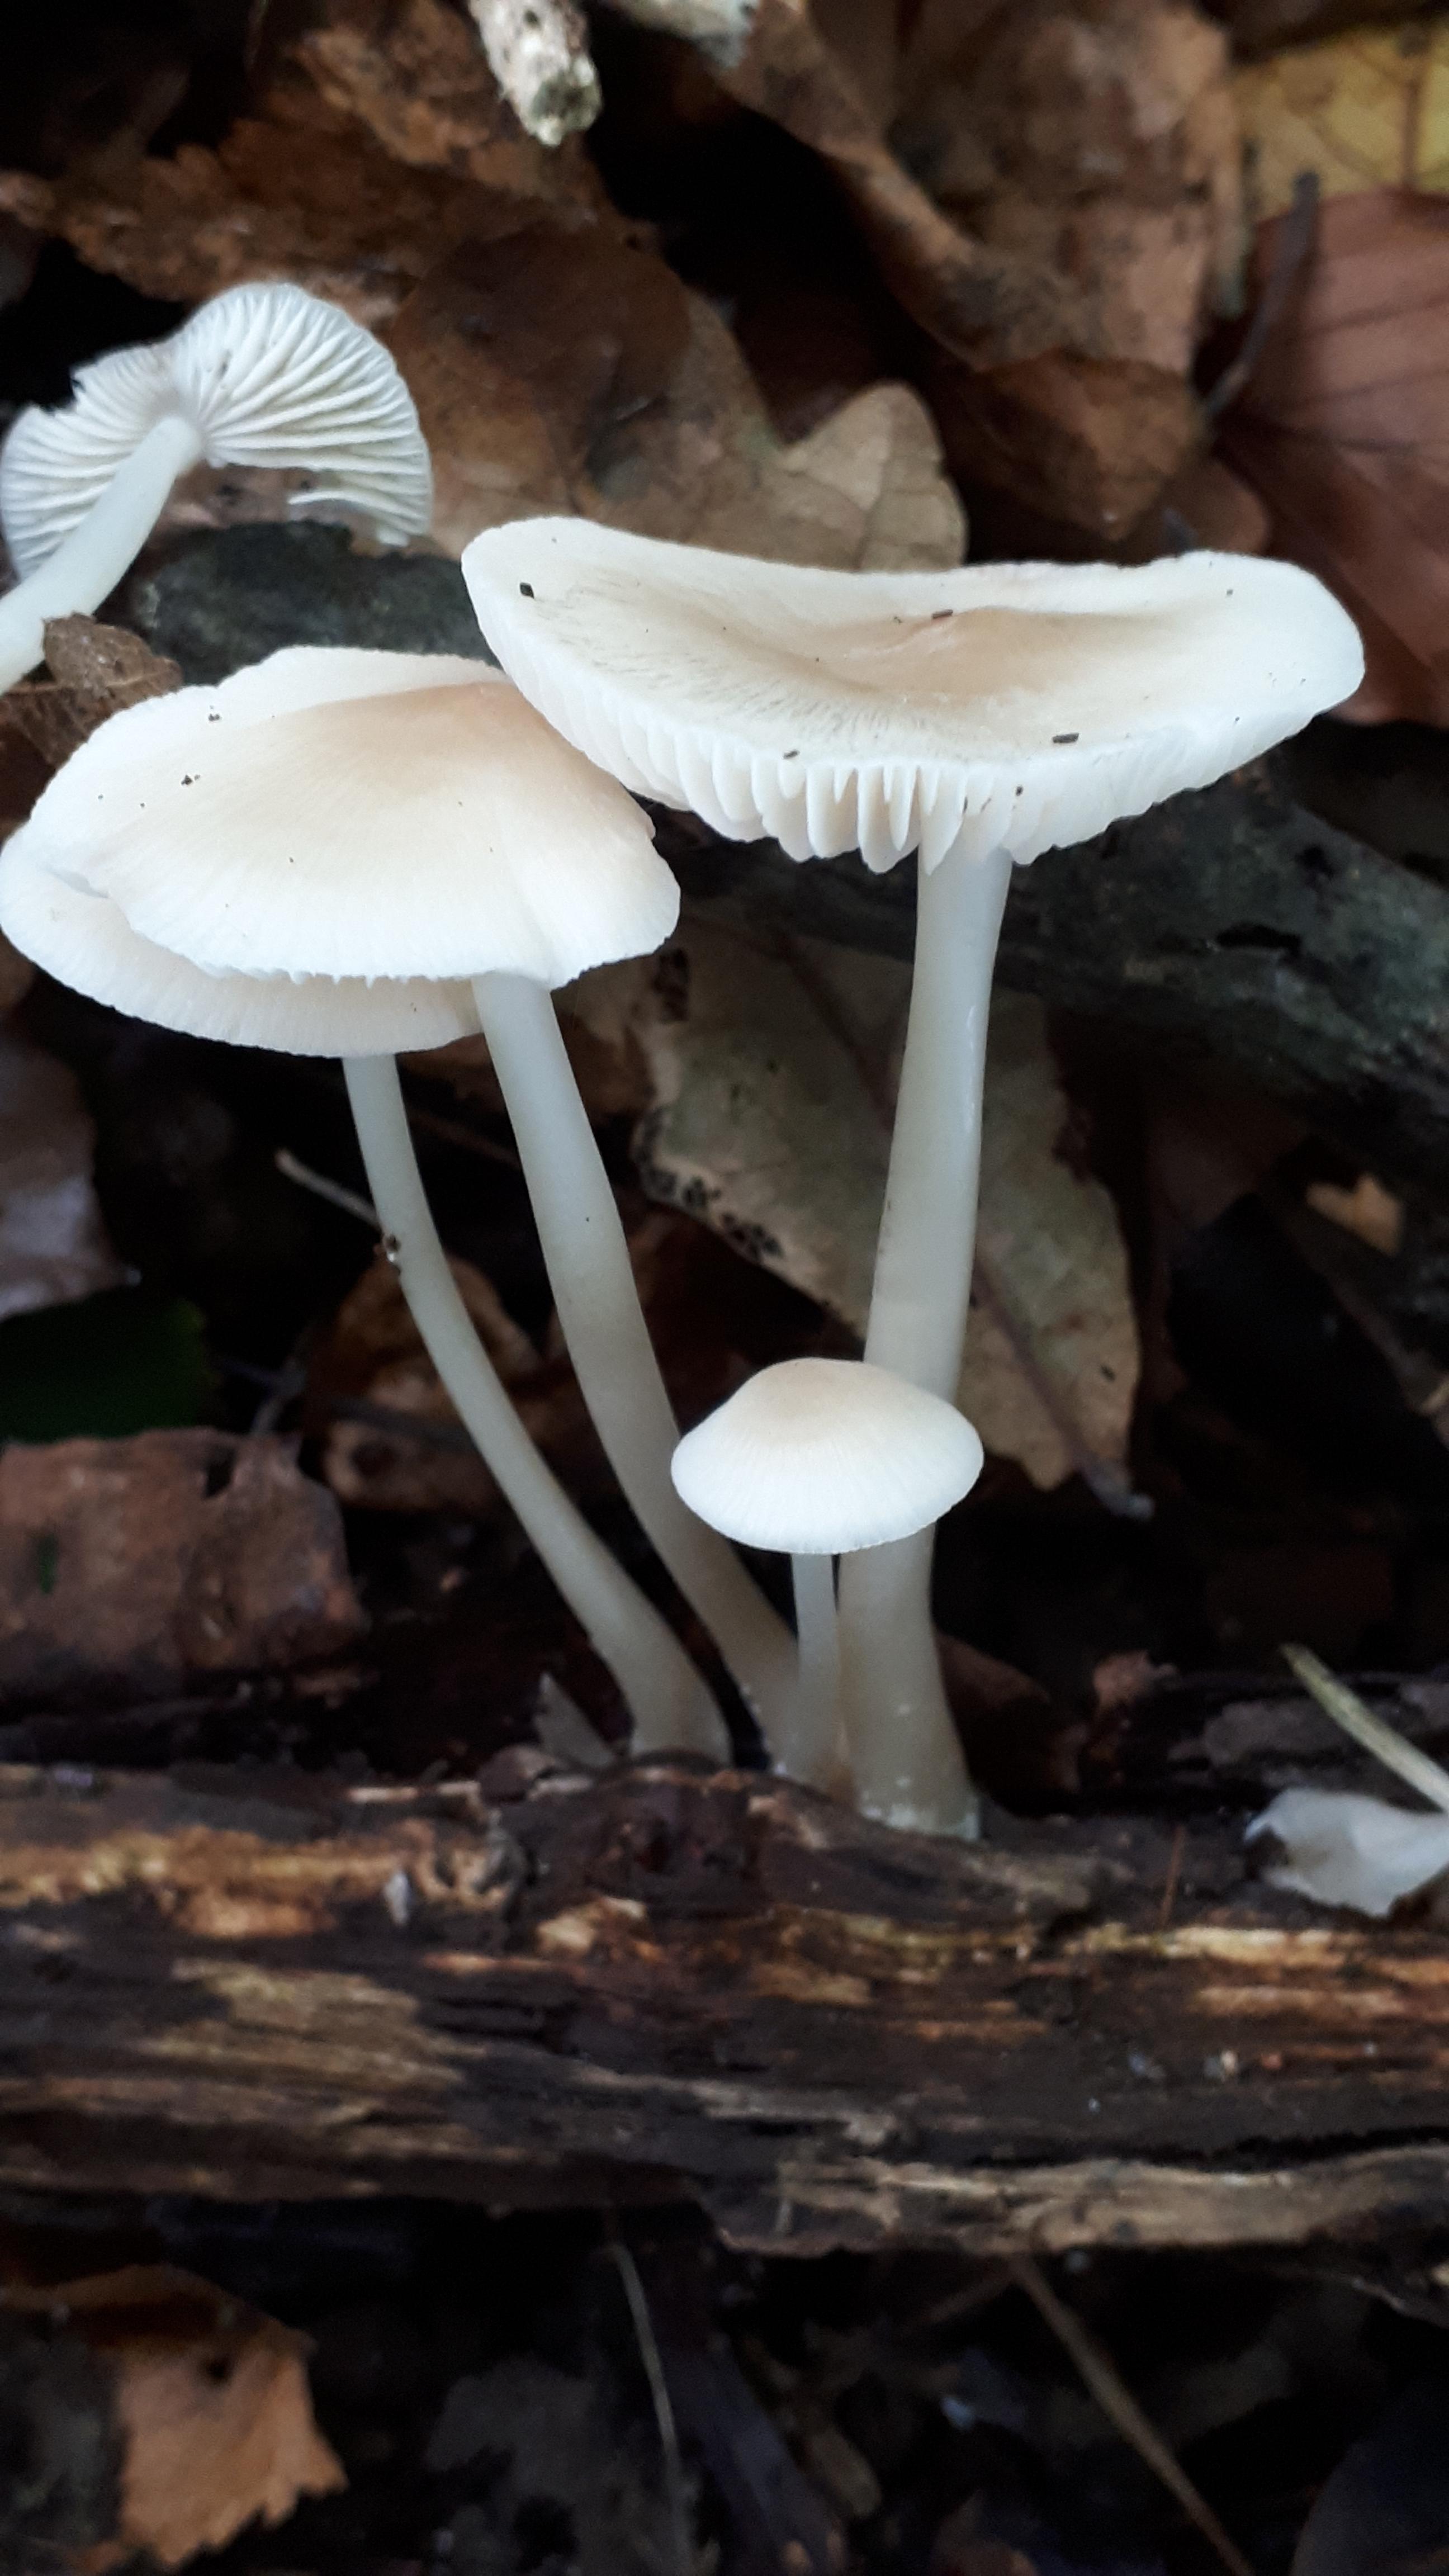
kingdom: Fungi
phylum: Basidiomycota
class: Agaricomycetes
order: Agaricales
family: Mycenaceae
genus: Mycena
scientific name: Mycena galericulata
